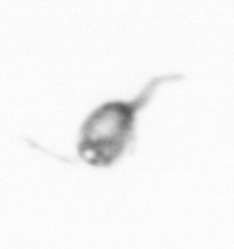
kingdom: Animalia
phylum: Arthropoda
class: Copepoda
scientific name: Copepoda
